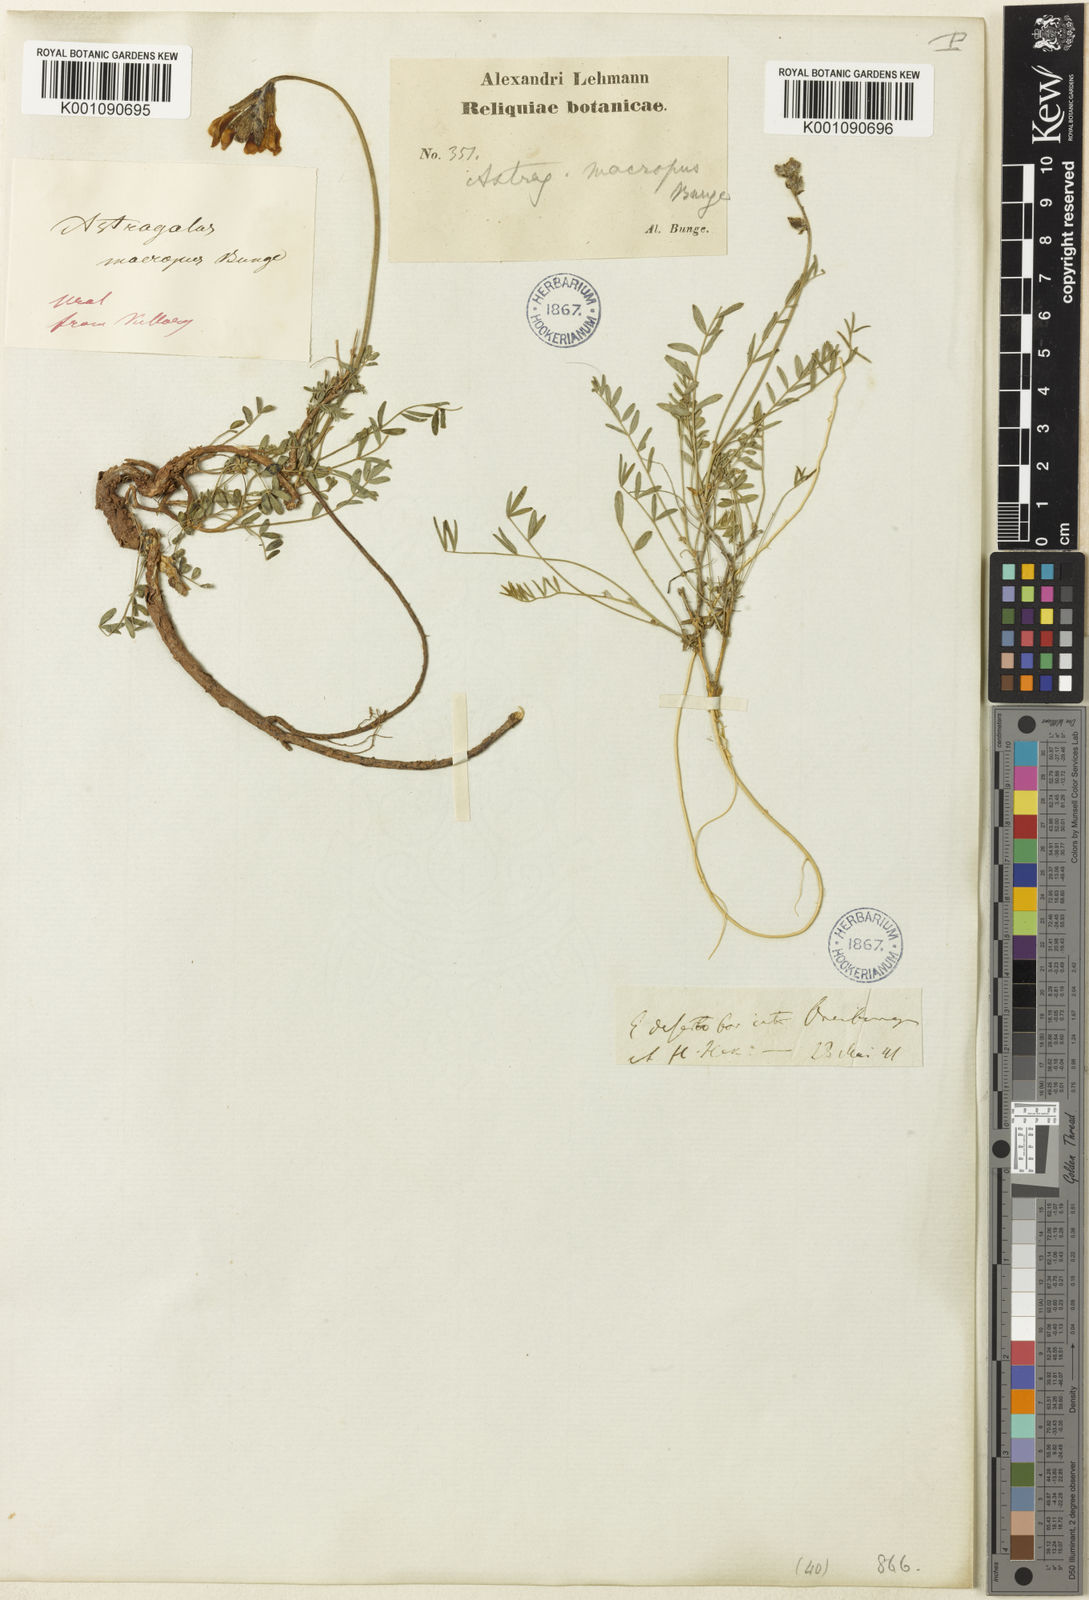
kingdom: Plantae
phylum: Tracheophyta
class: Magnoliopsida
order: Fabales
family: Fabaceae
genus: Astragalus
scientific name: Astragalus
